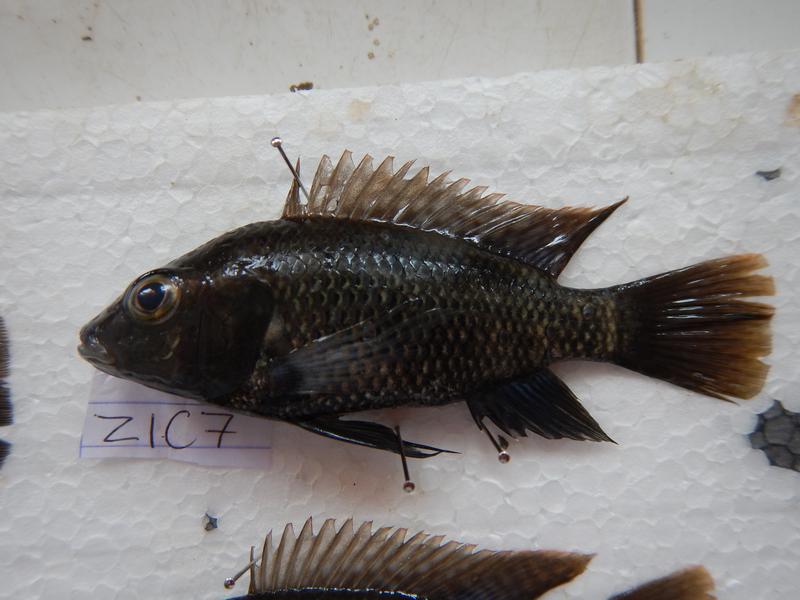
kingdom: Animalia
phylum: Chordata
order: Perciformes
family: Cichlidae
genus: Oreochromis
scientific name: Oreochromis urolepis
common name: Wami tilapia
